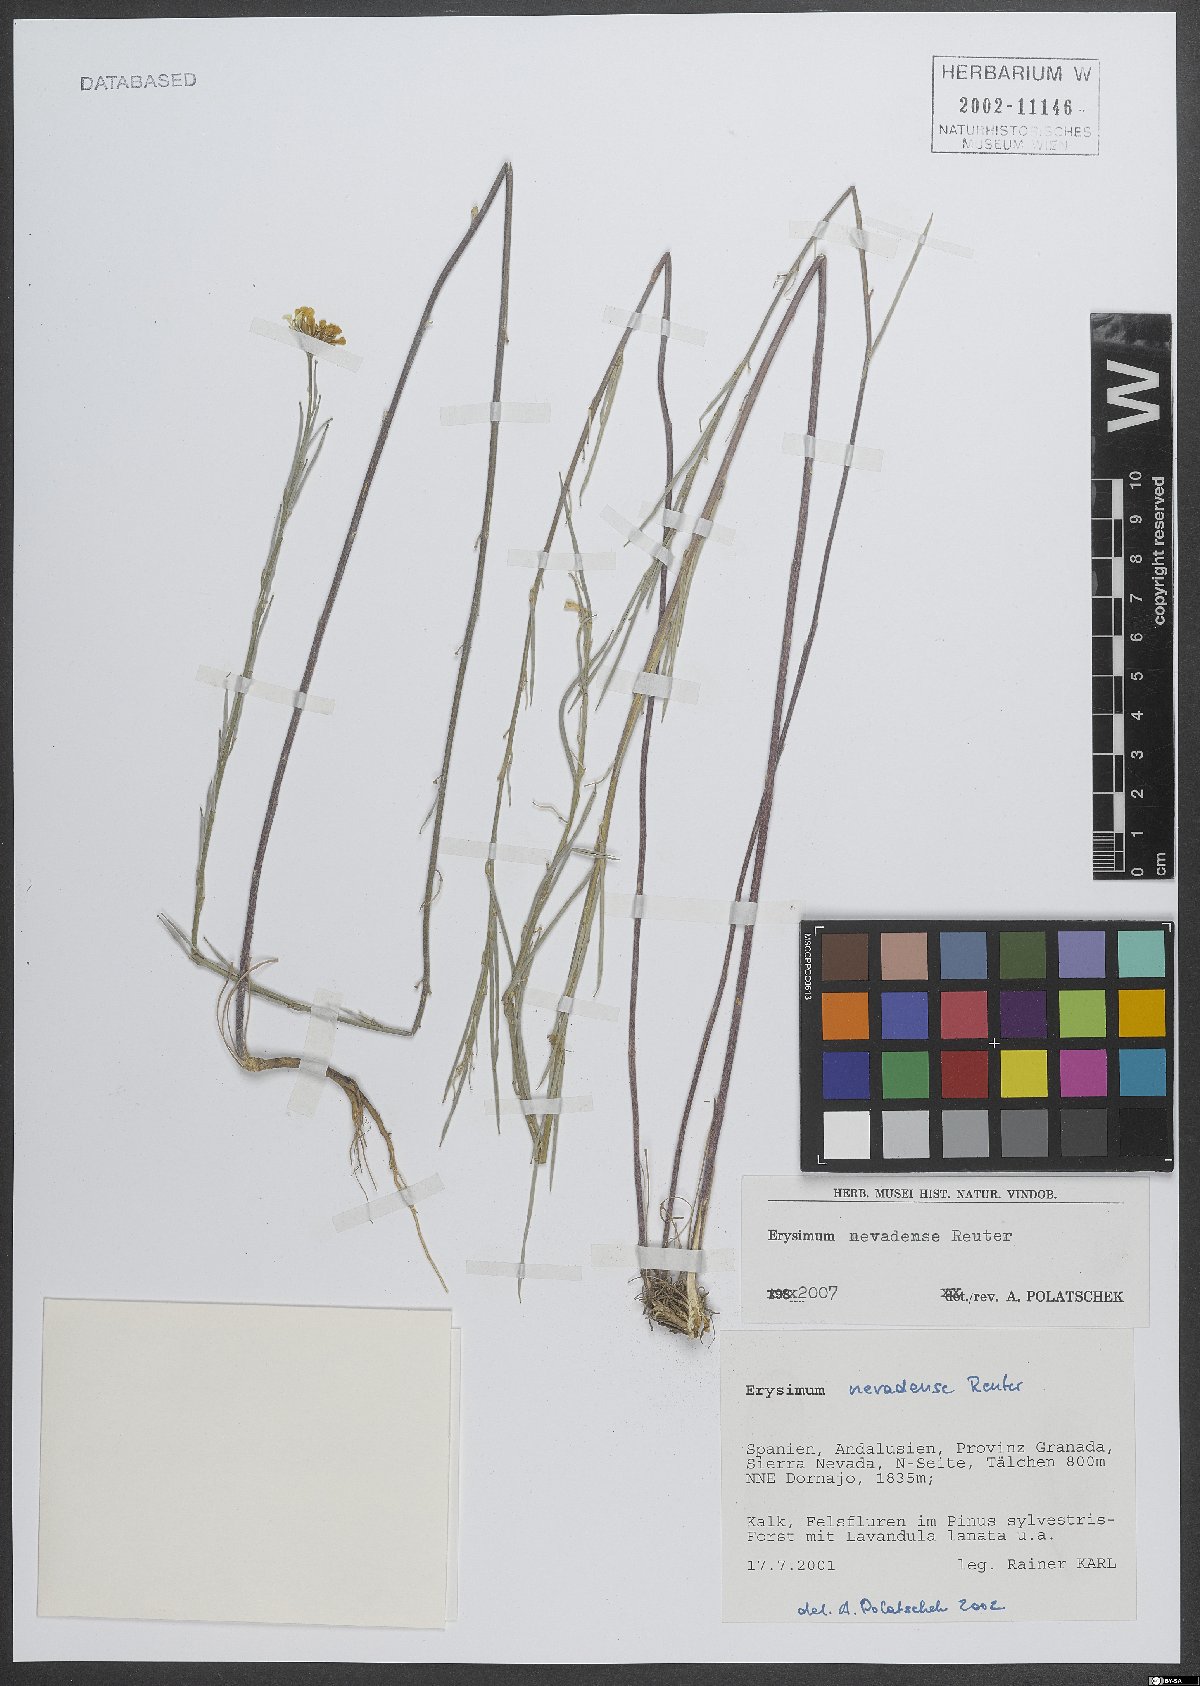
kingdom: Plantae
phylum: Tracheophyta
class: Magnoliopsida
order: Brassicales
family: Brassicaceae
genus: Erysimum
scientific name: Erysimum nevadense
